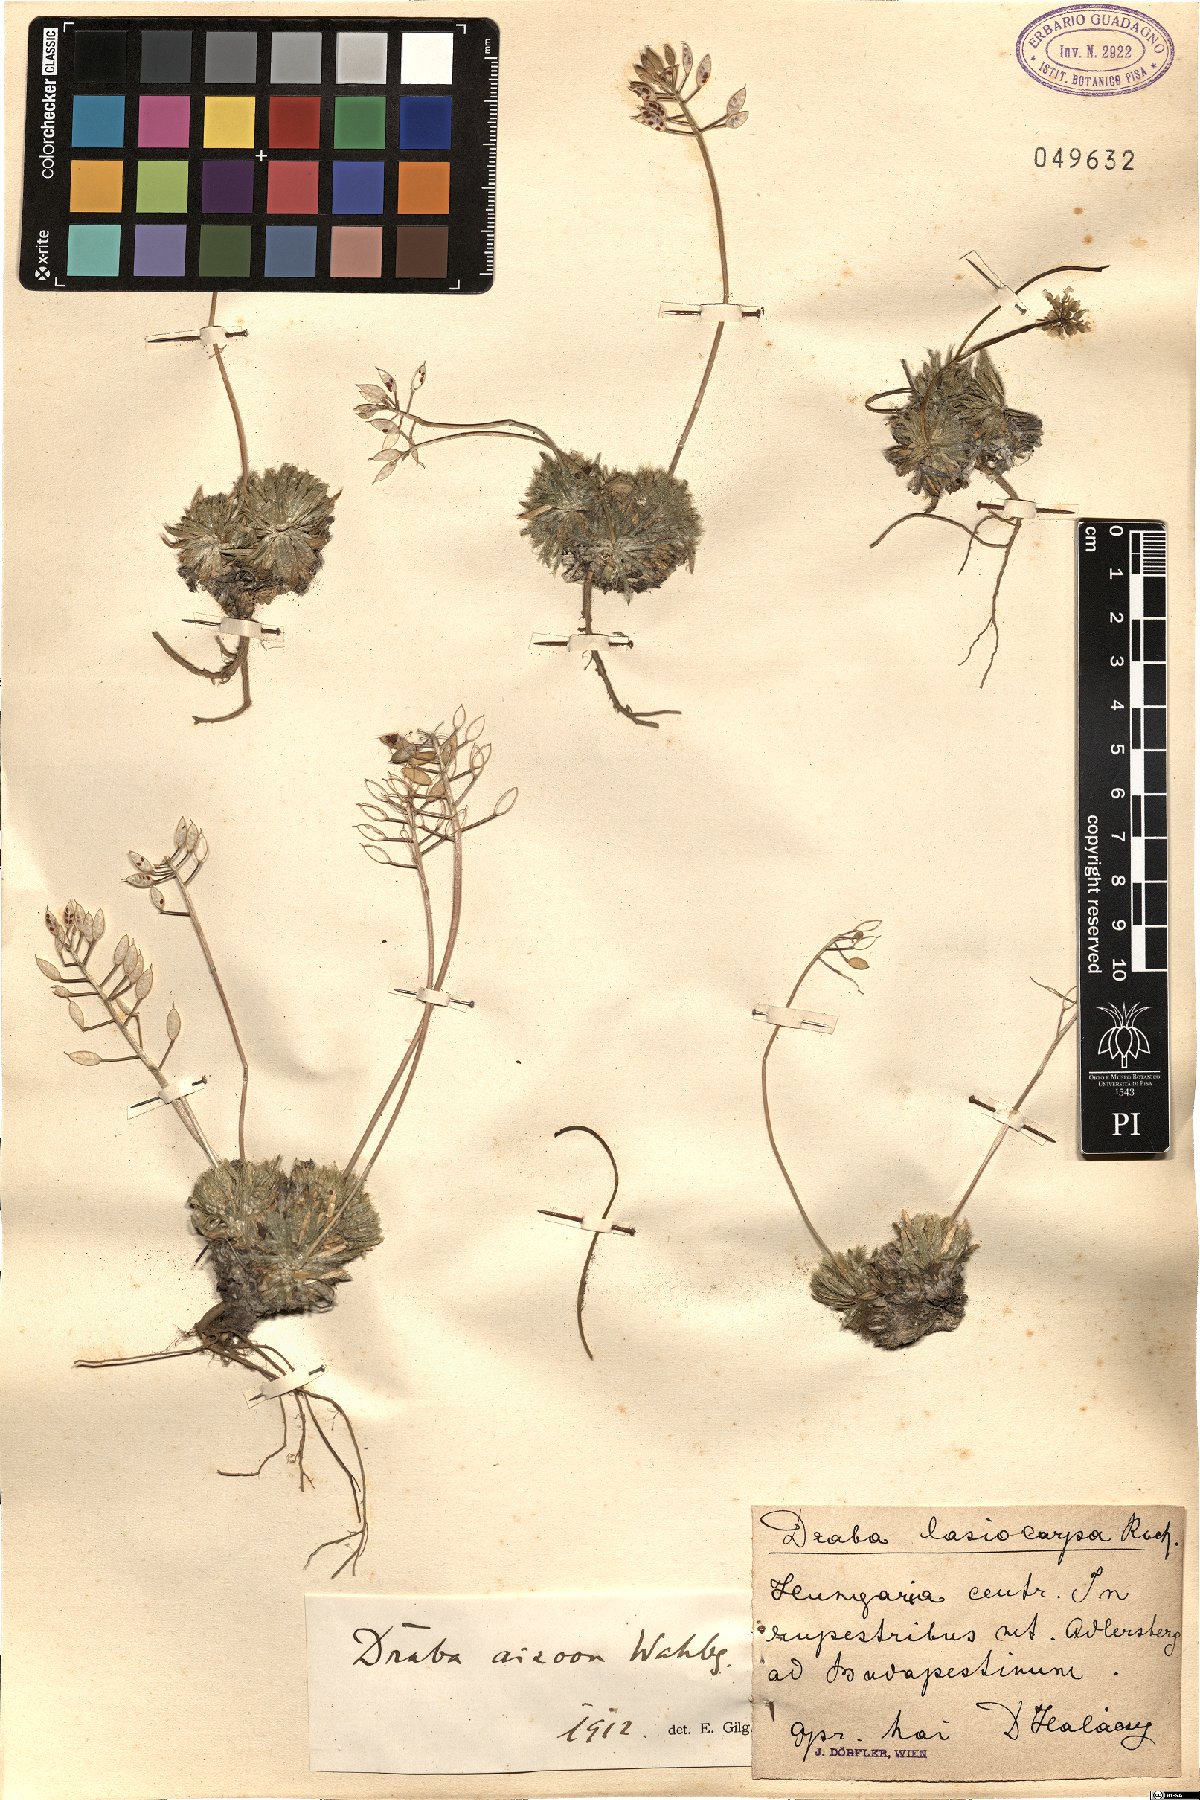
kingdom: Plantae
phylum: Tracheophyta
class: Magnoliopsida
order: Brassicales
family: Brassicaceae
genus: Draba
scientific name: Draba lasiocarpa
